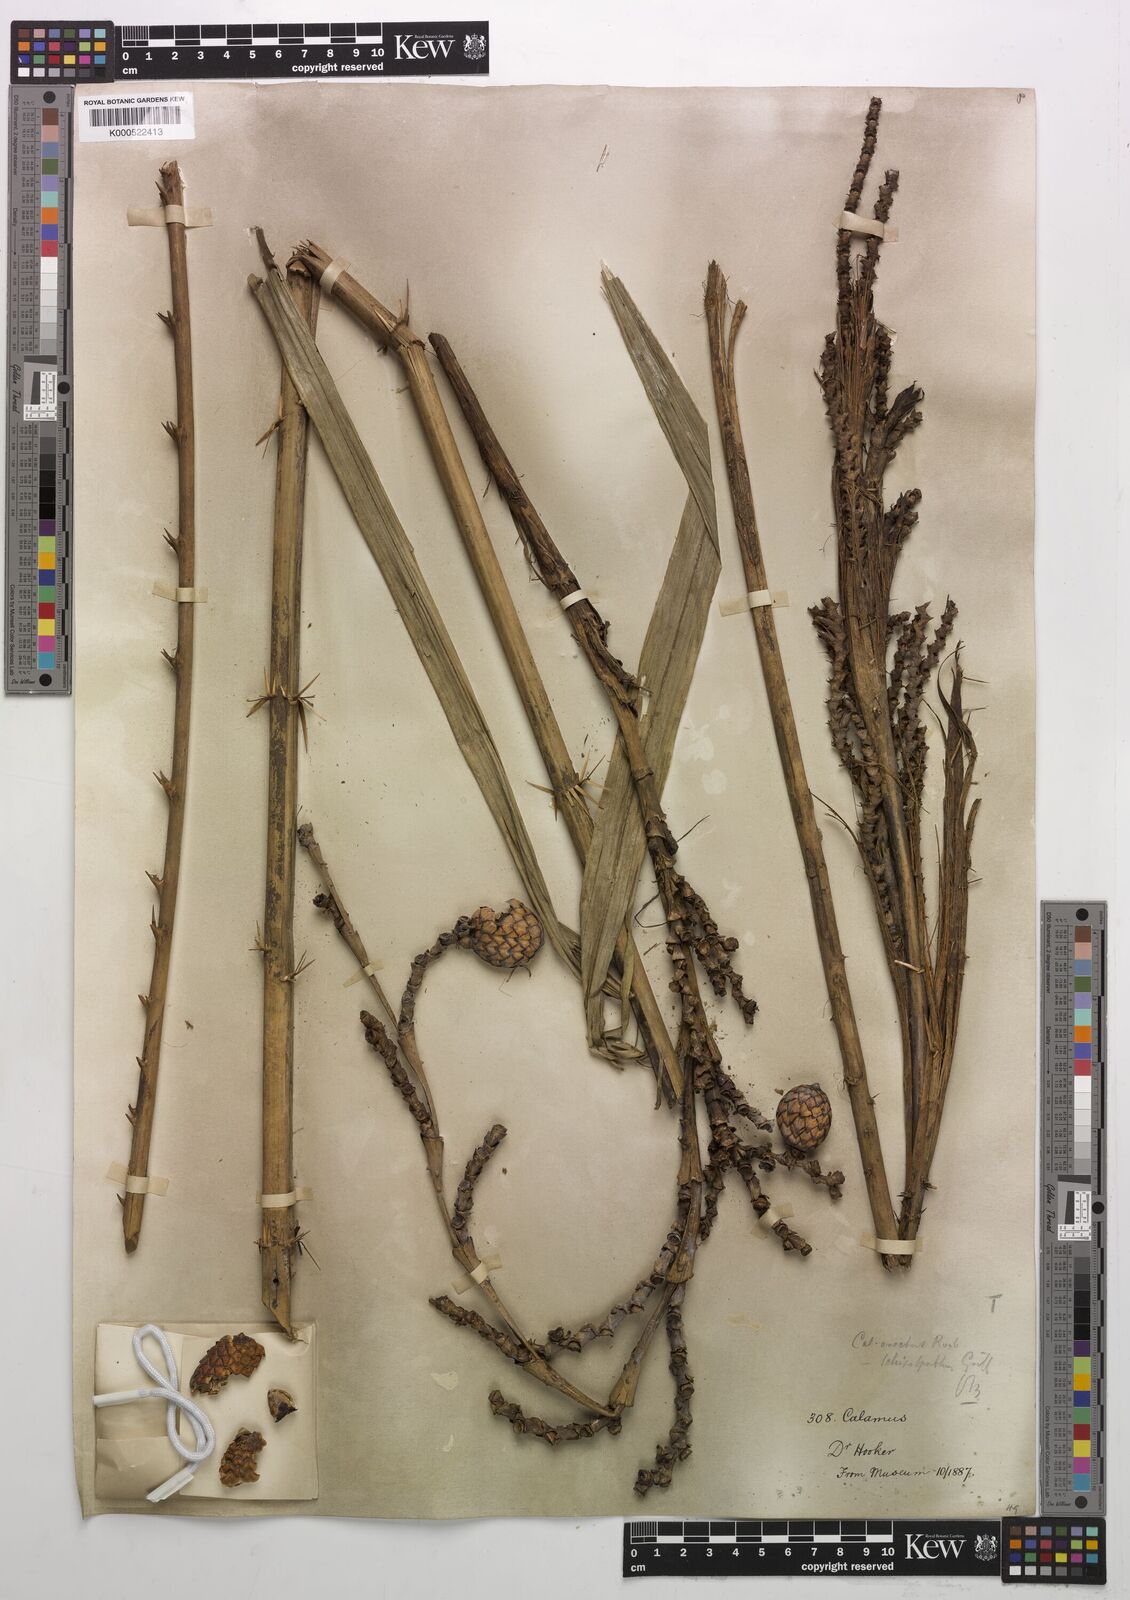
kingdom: Plantae
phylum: Tracheophyta
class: Liliopsida
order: Arecales
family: Arecaceae
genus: Calamus
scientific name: Calamus erectus
